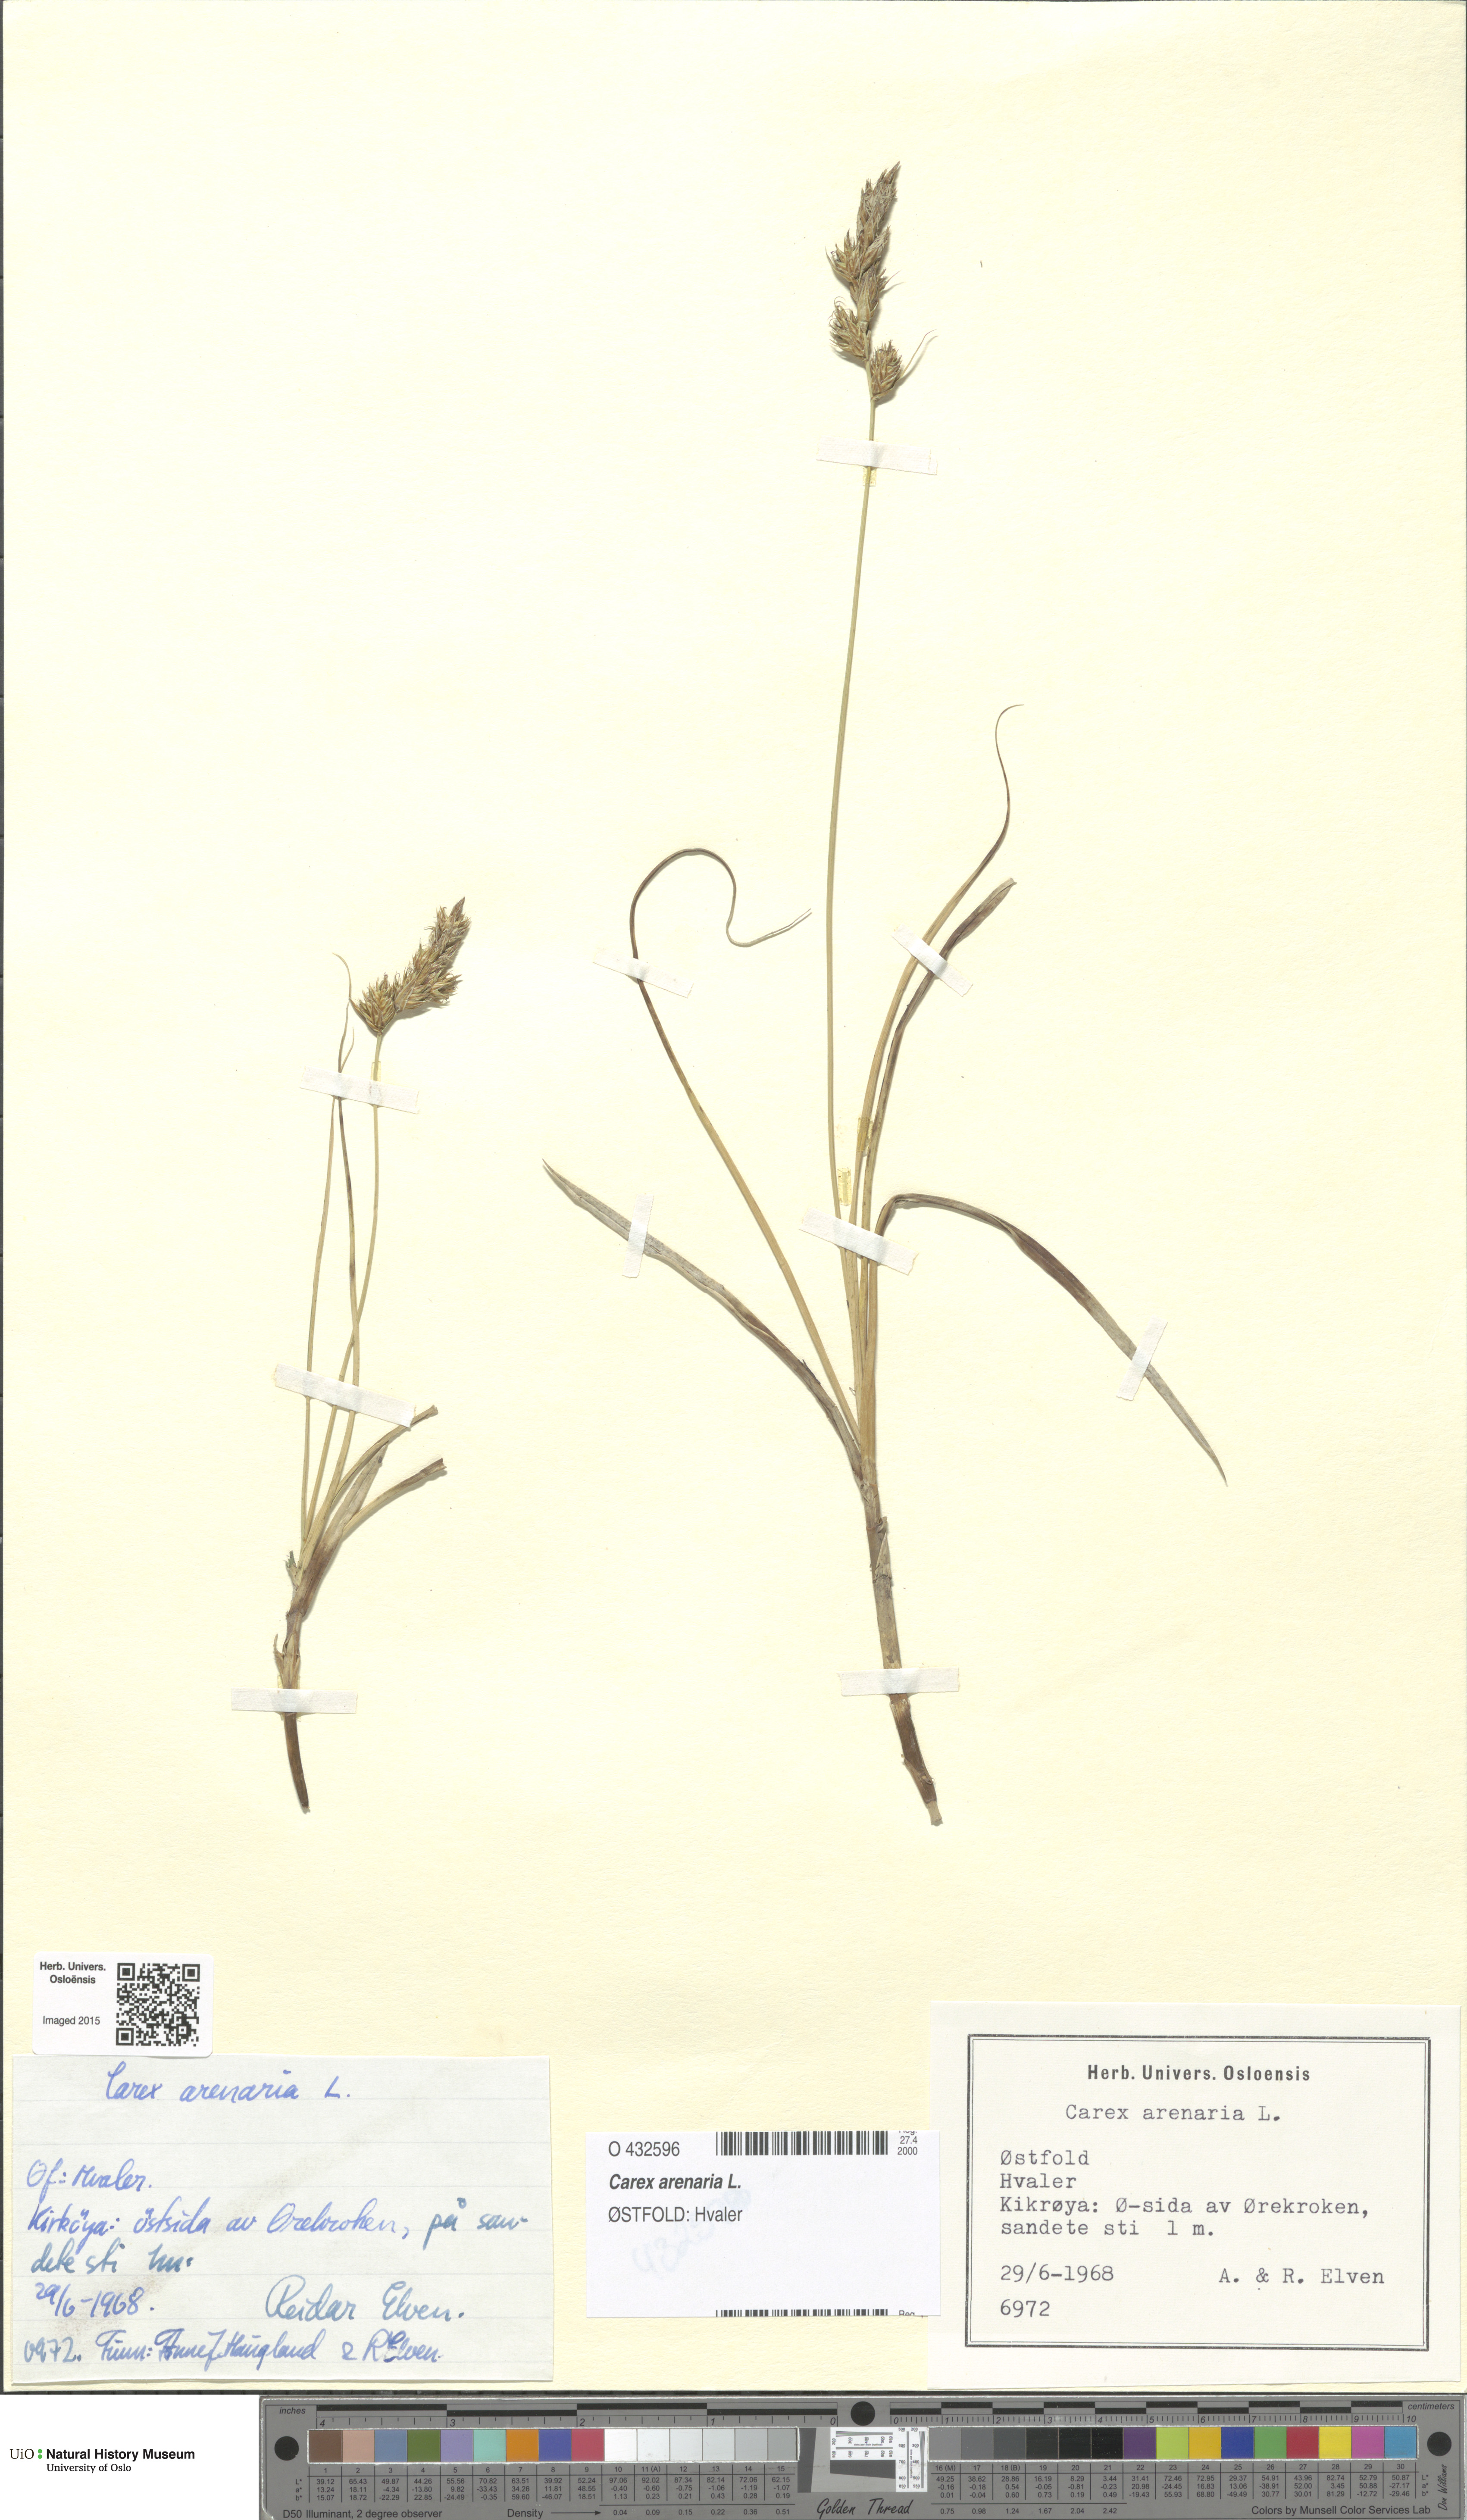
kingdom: Plantae
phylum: Tracheophyta
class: Liliopsida
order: Poales
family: Cyperaceae
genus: Carex
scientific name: Carex arenaria
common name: Sand sedge
